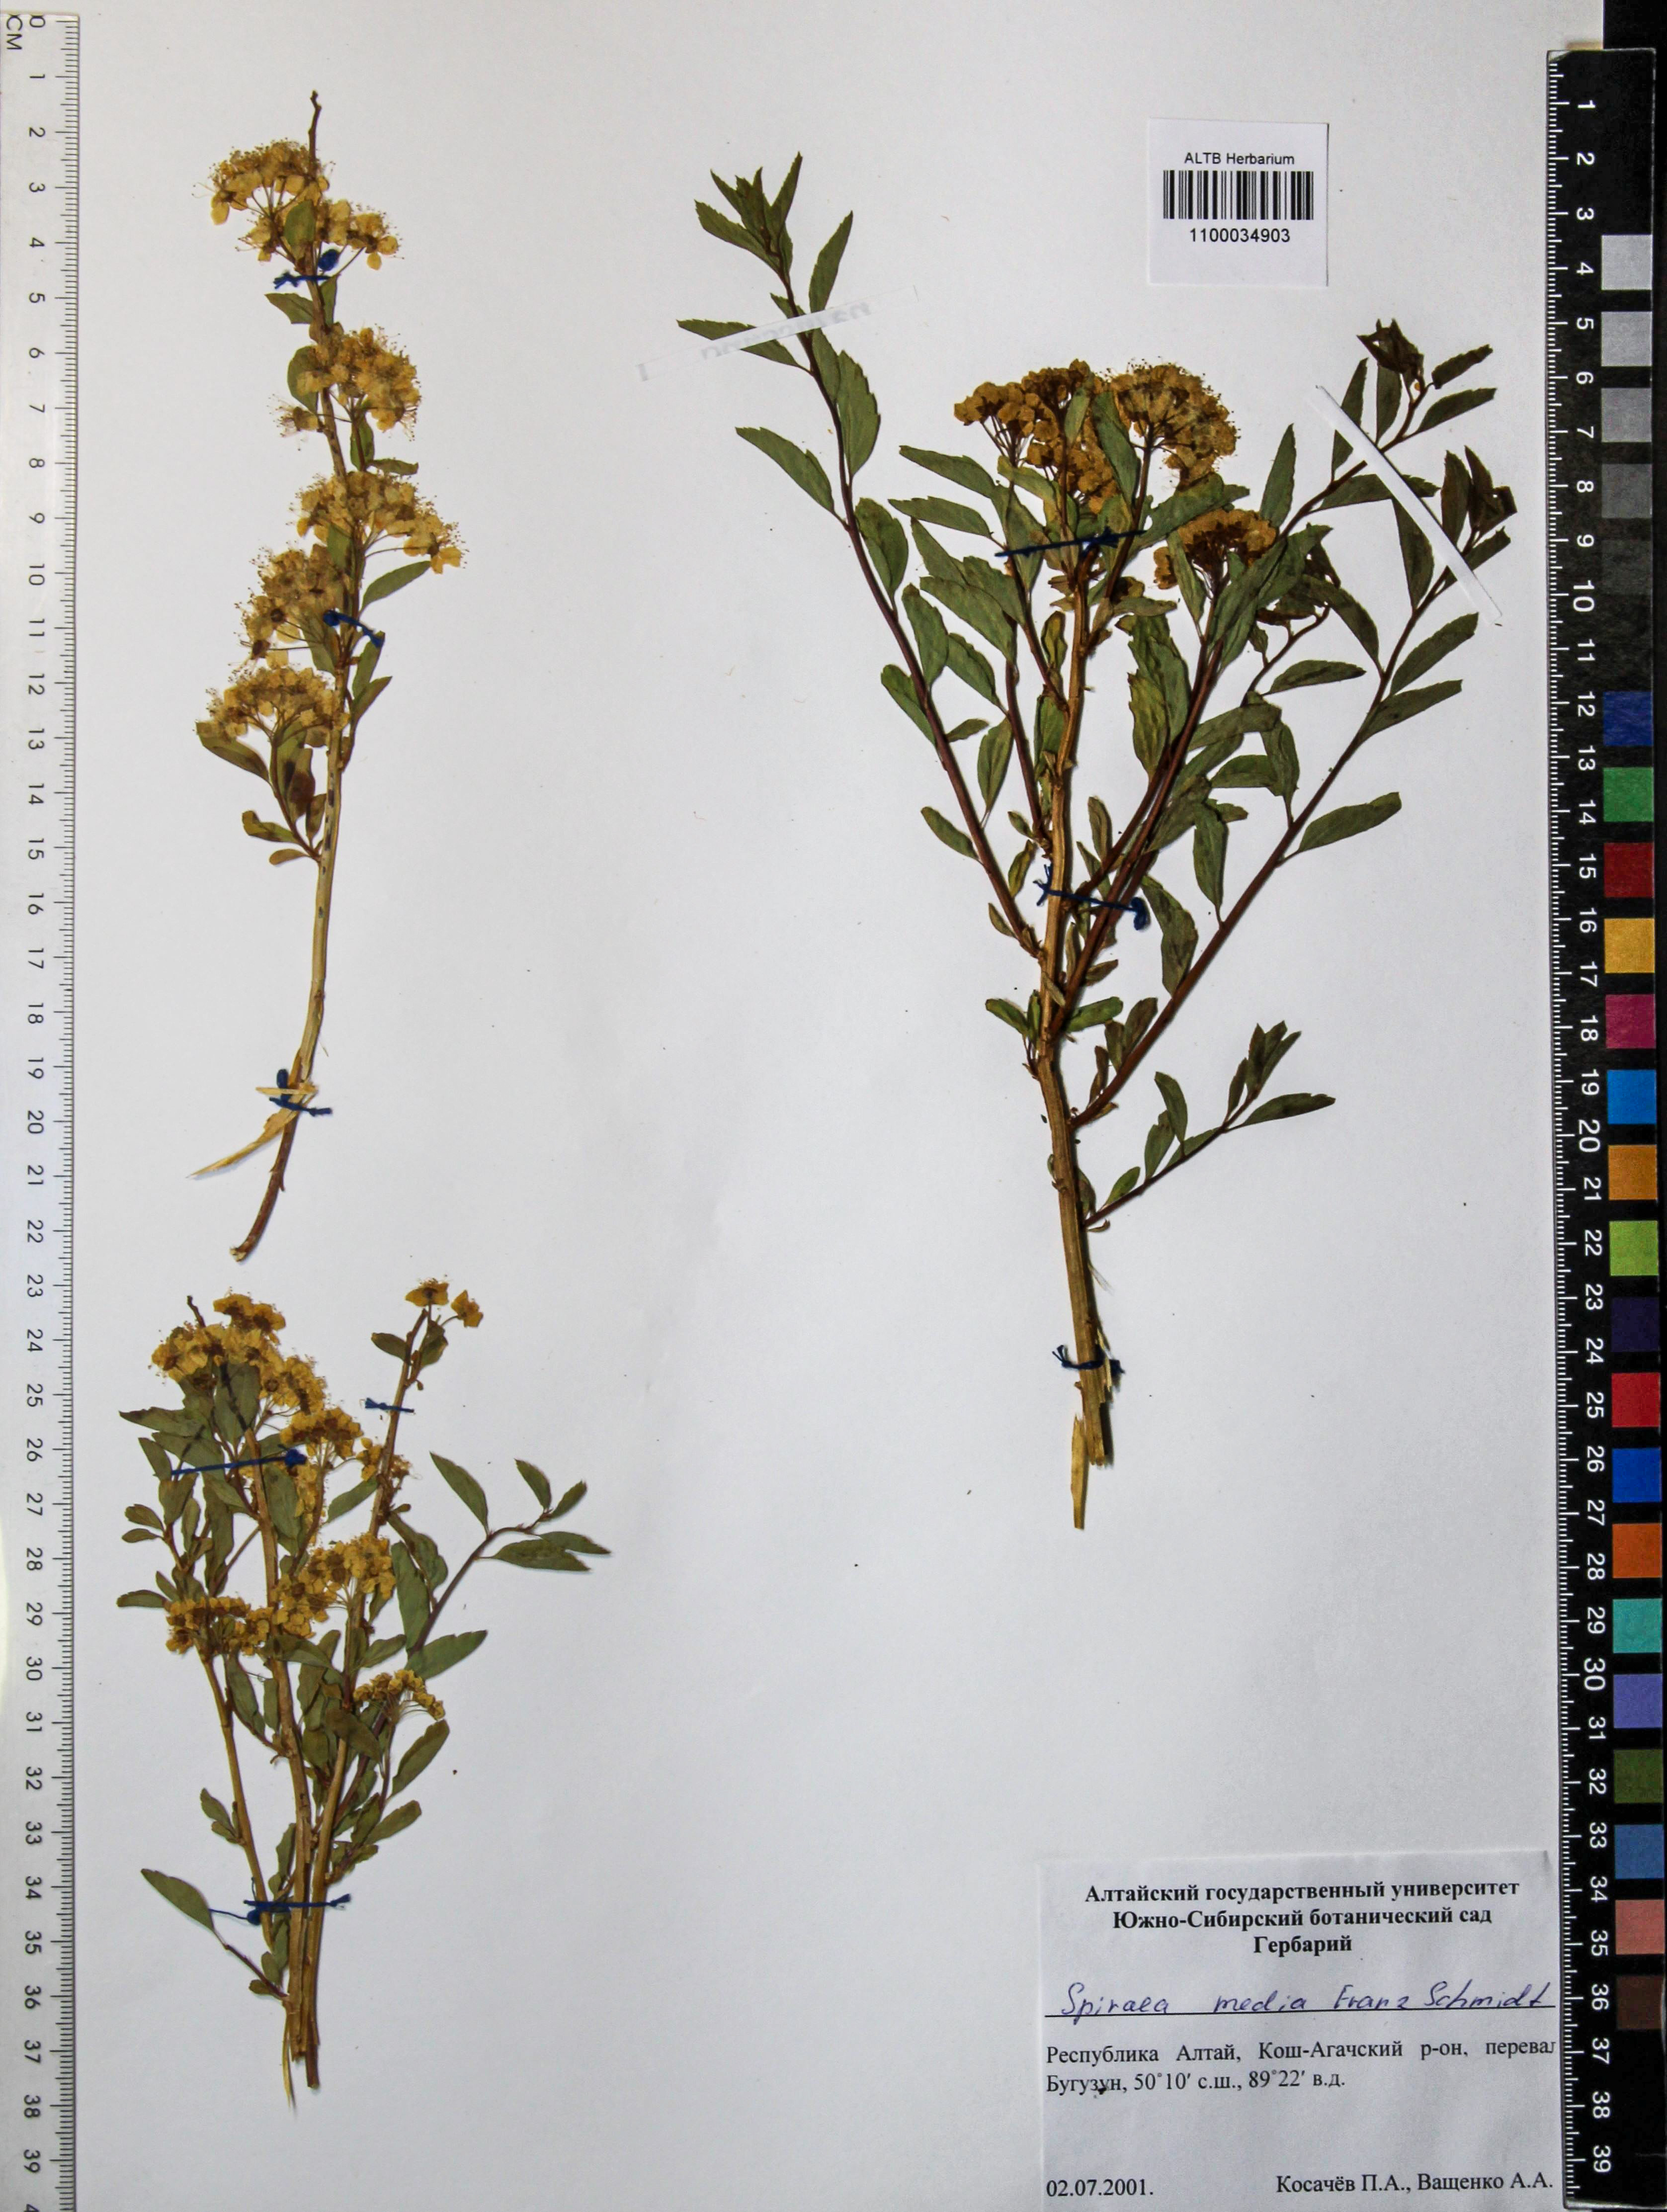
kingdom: Plantae
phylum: Tracheophyta
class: Magnoliopsida
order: Rosales
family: Rosaceae
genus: Spiraea
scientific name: Spiraea media
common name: Russian spiraea
